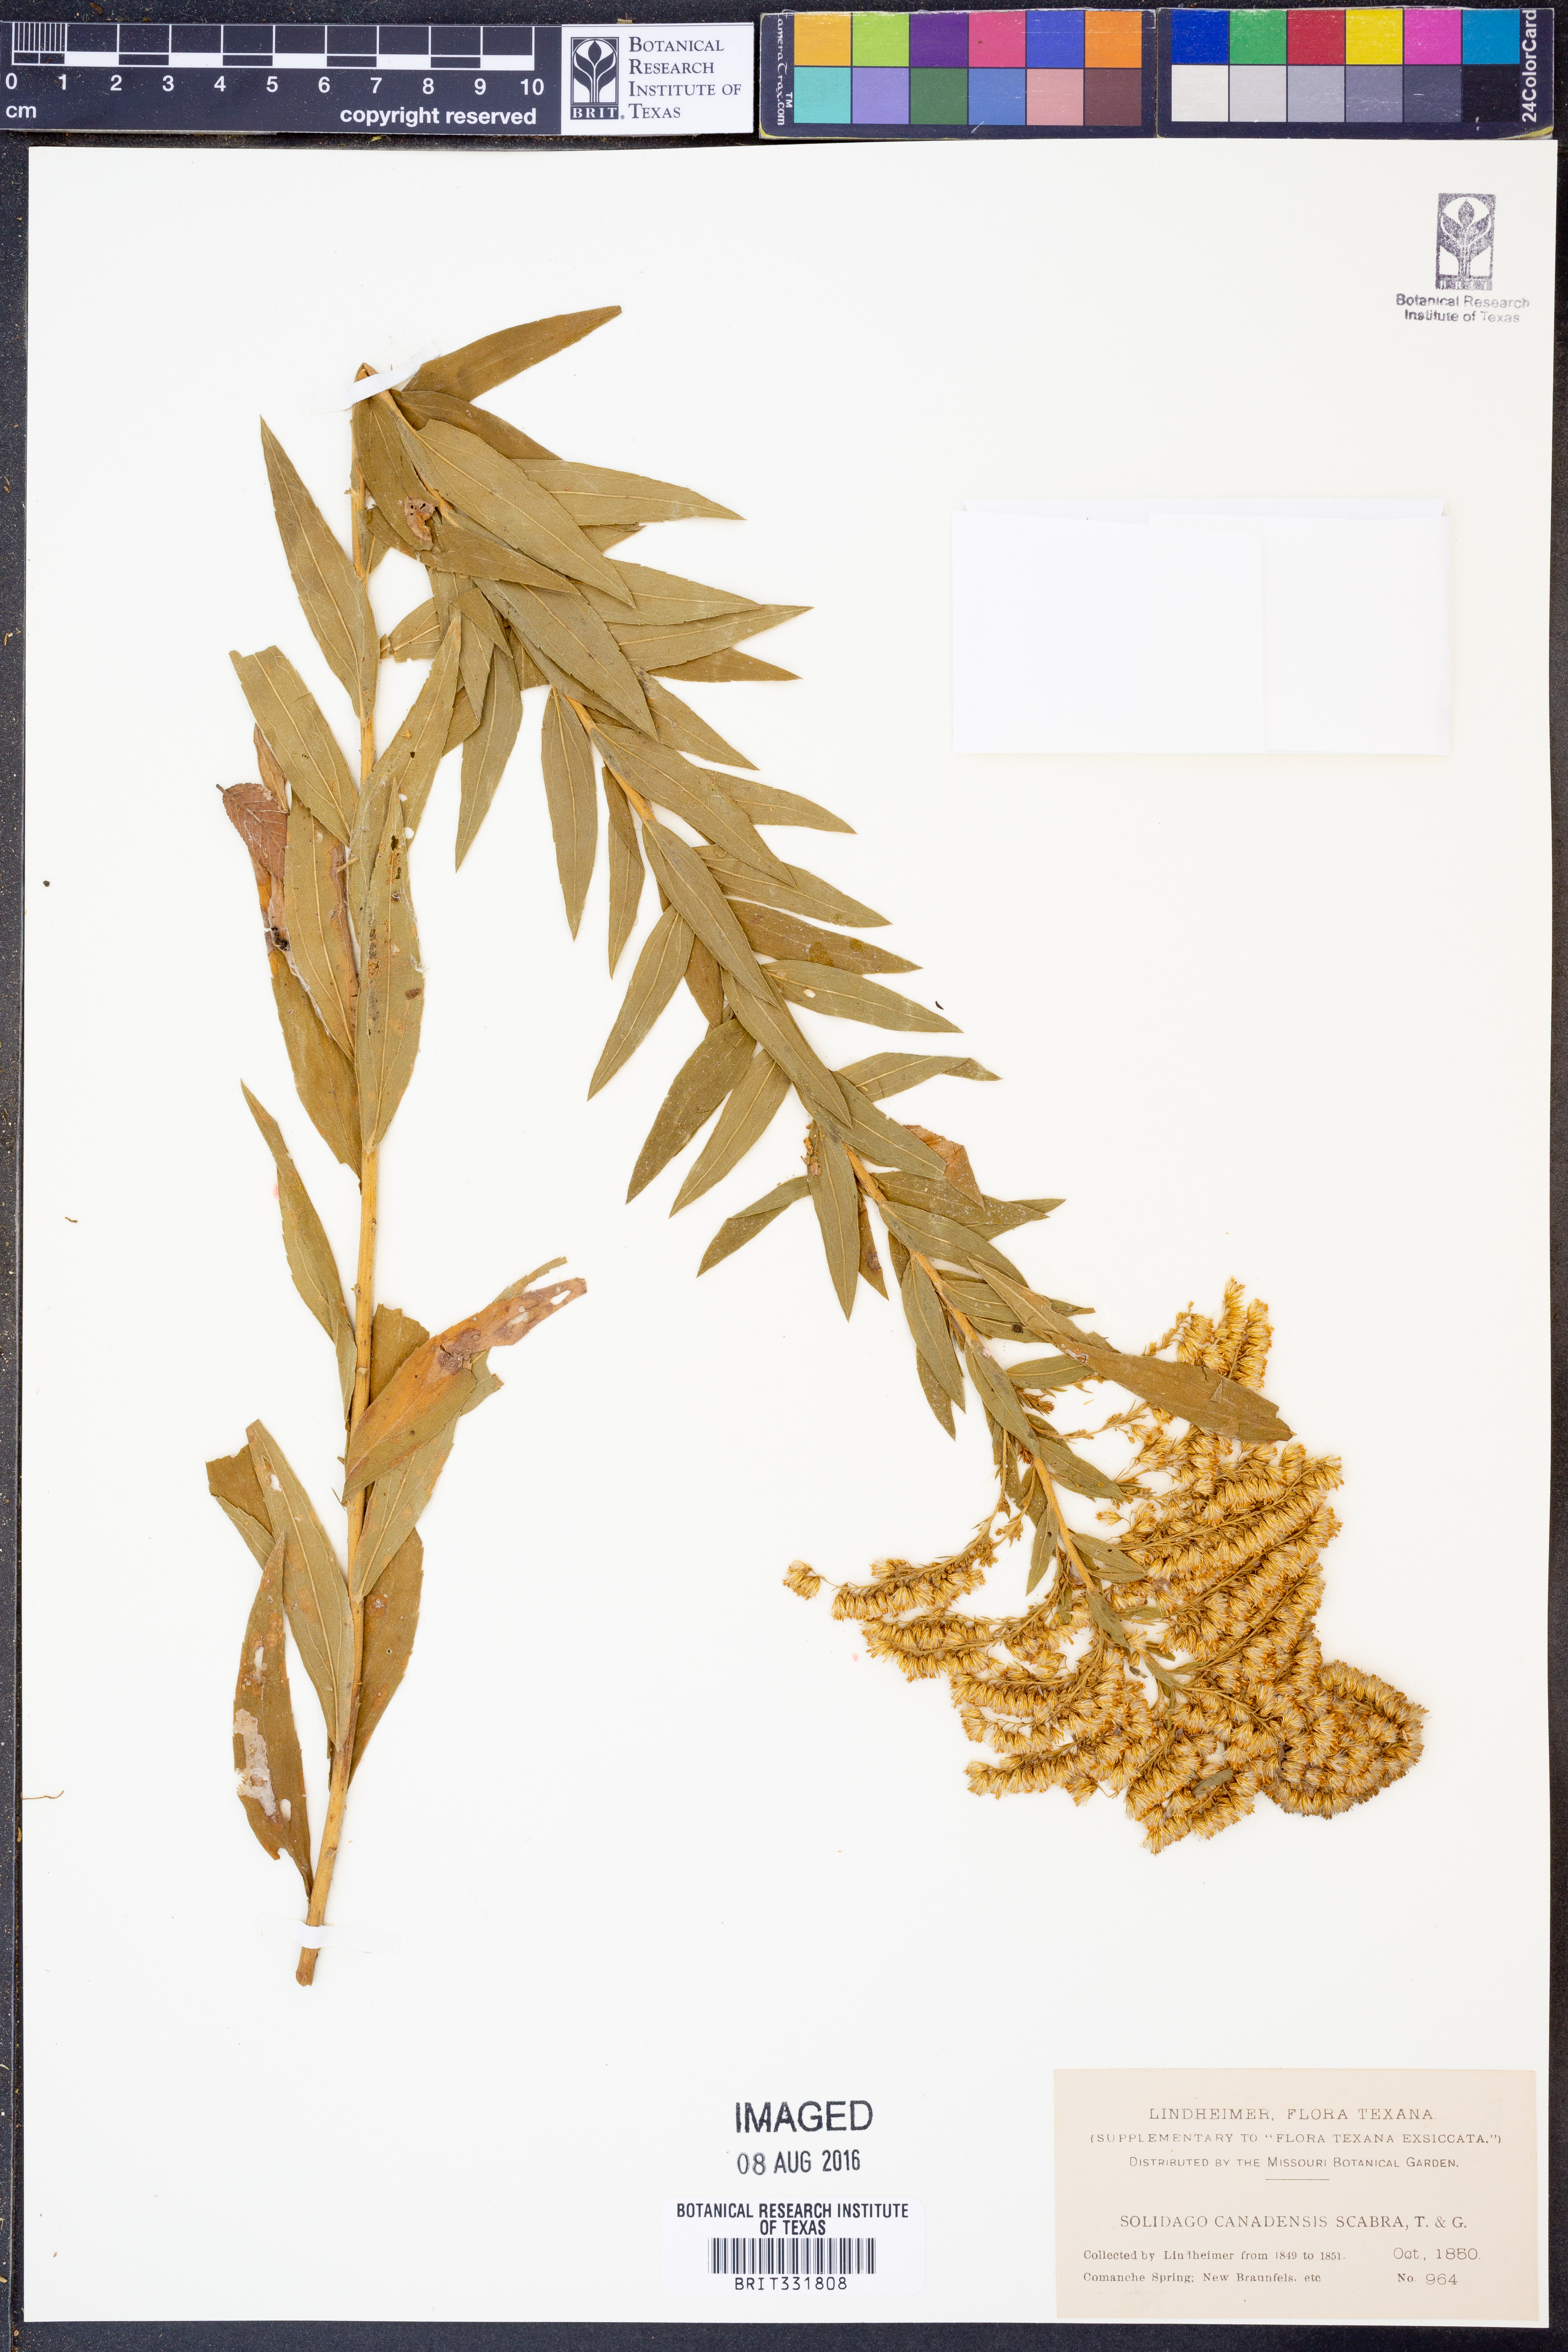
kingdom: Plantae
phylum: Tracheophyta
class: Magnoliopsida
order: Asterales
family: Asteraceae
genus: Solidago
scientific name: Solidago altissima
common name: Late goldenrod
